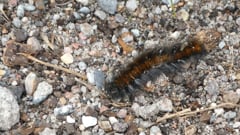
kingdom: Animalia
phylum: Arthropoda
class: Insecta
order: Lepidoptera
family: Lasiocampidae
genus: Macrothylacia
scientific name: Macrothylacia rubi
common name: Fox moth
